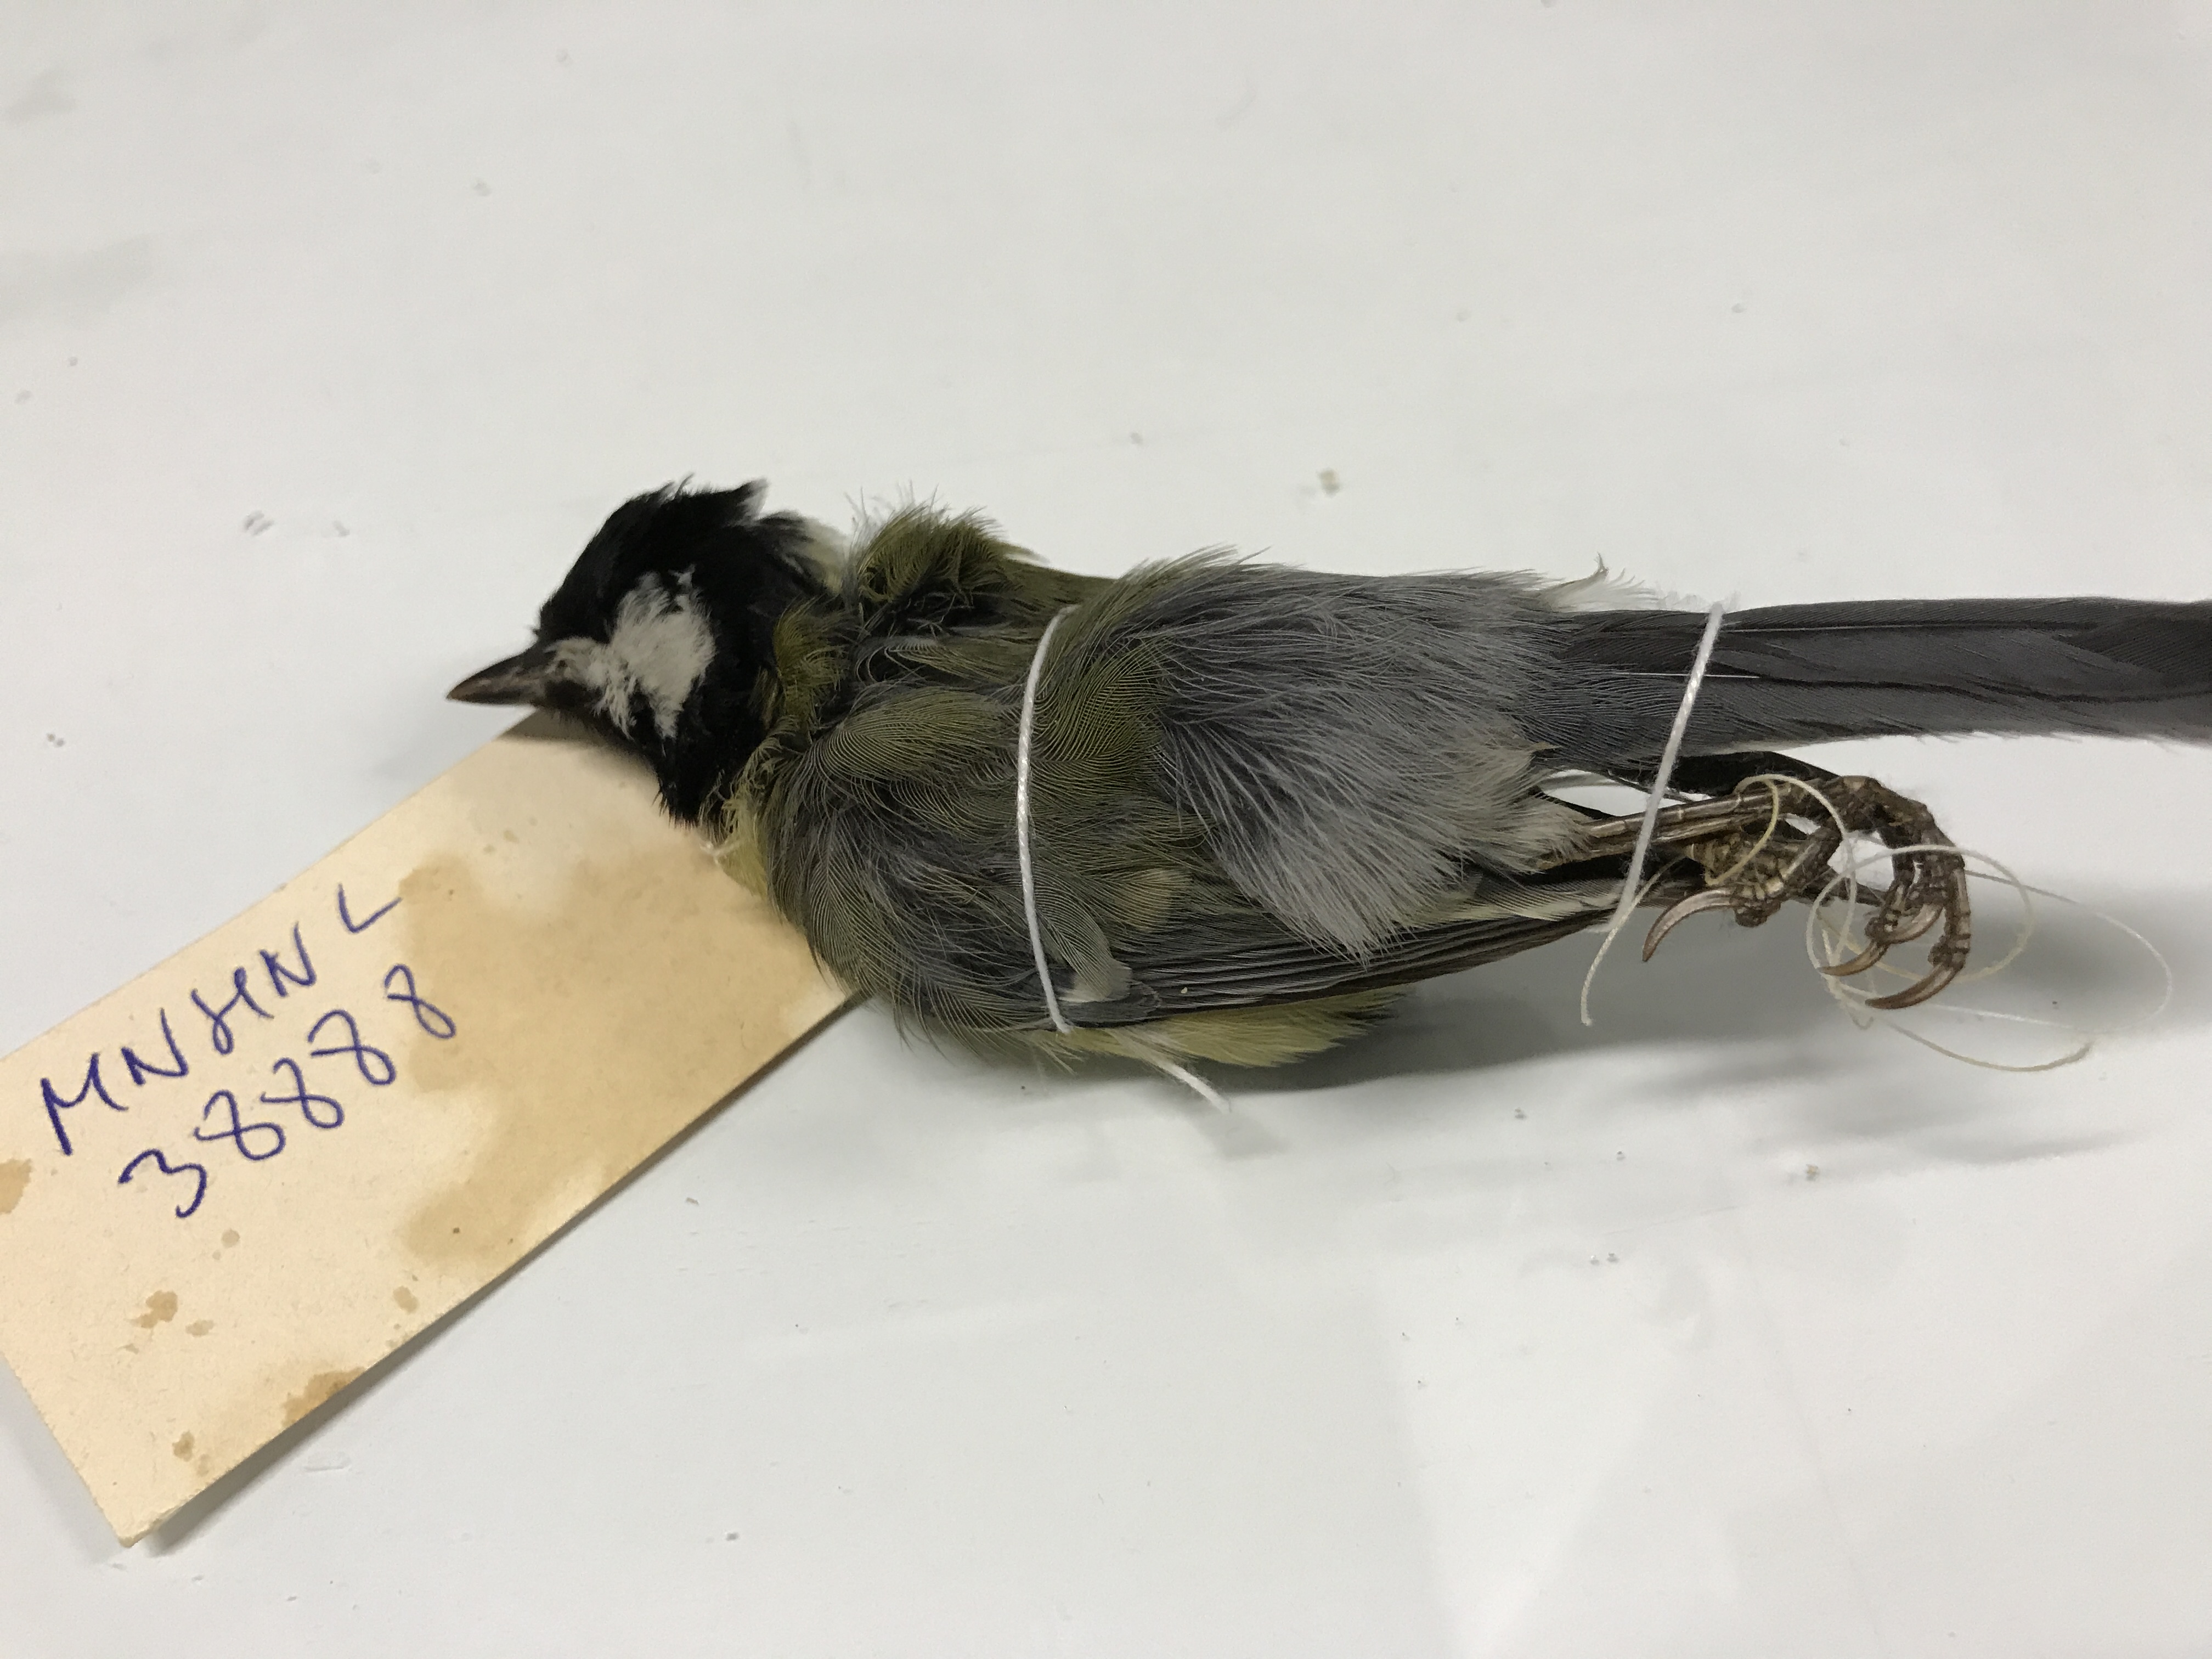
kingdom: Animalia
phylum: Chordata
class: Aves
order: Passeriformes
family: Paridae
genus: Parus
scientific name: Parus major
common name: Great tit
